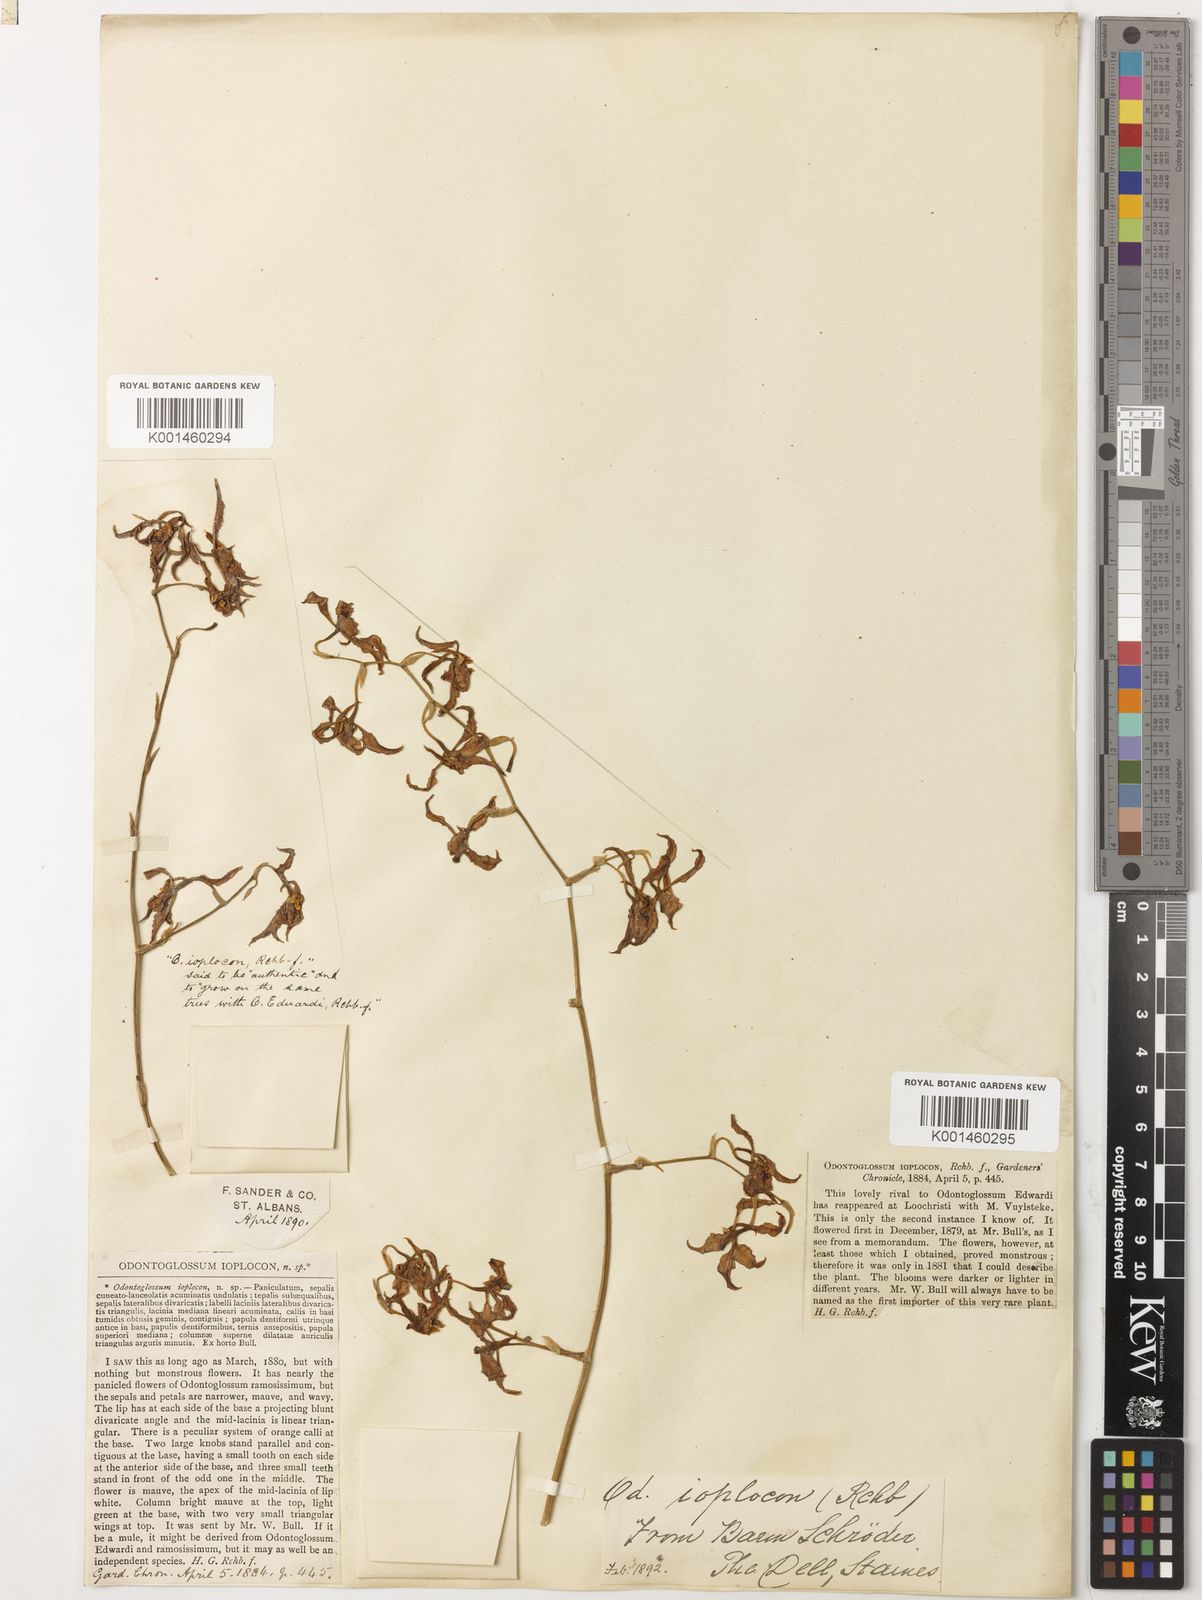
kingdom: Plantae
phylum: Tracheophyta
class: Liliopsida
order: Asparagales
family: Orchidaceae
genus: Cyrtochilum
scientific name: Cyrtochilum
